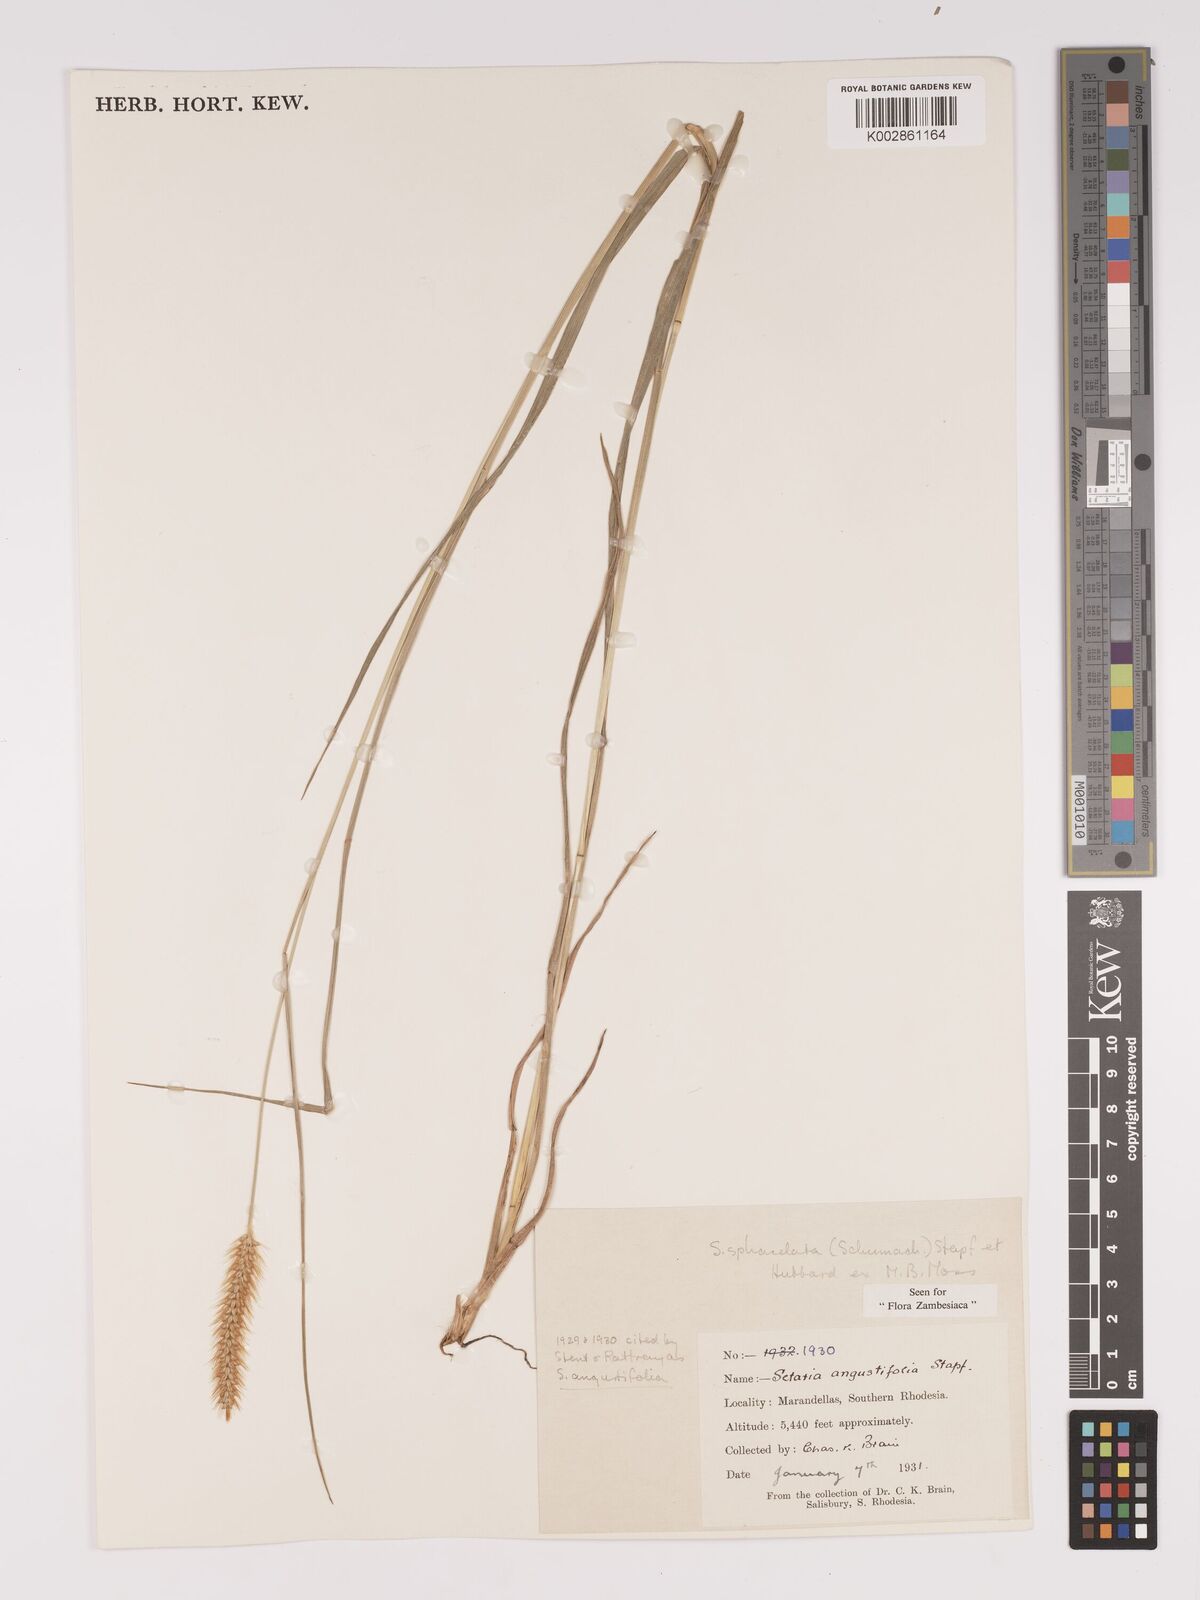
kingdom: Plantae
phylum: Tracheophyta
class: Liliopsida
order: Poales
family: Poaceae
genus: Setaria
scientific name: Setaria sphacelata
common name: African bristlegrass
